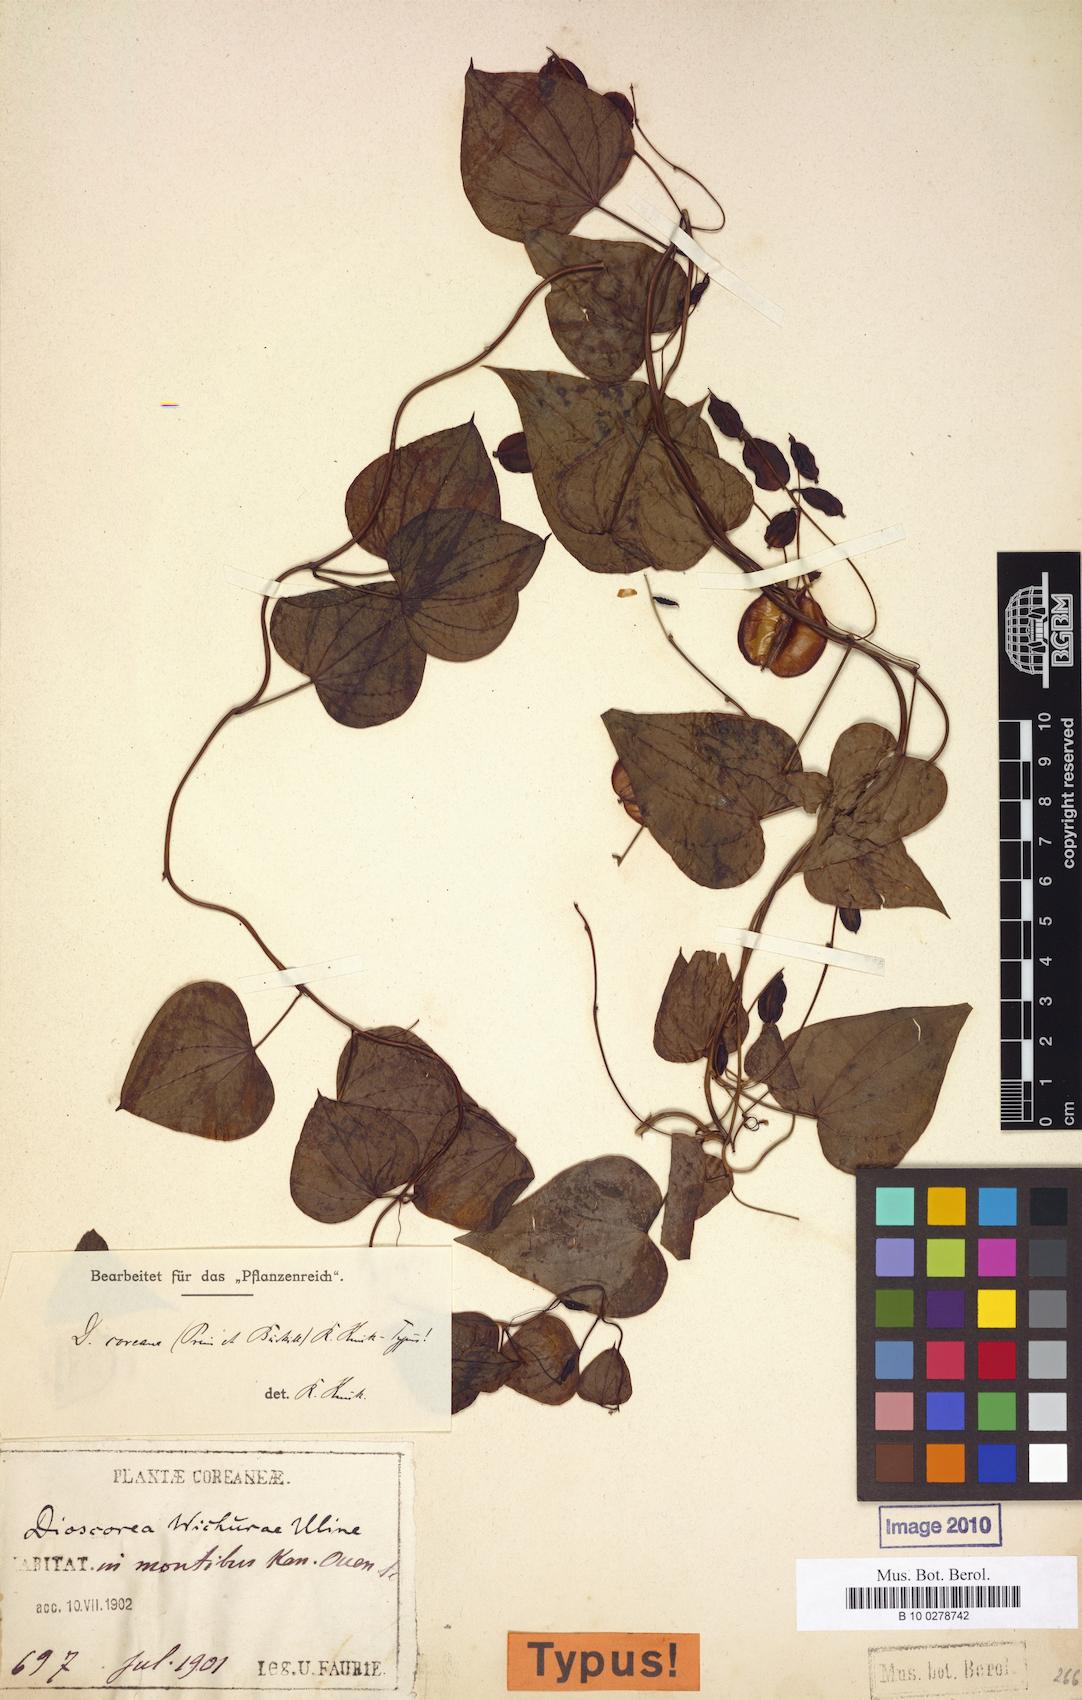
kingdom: Plantae
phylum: Tracheophyta
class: Liliopsida
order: Dioscoreales
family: Dioscoreaceae
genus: Dioscorea
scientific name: Dioscorea coreana
